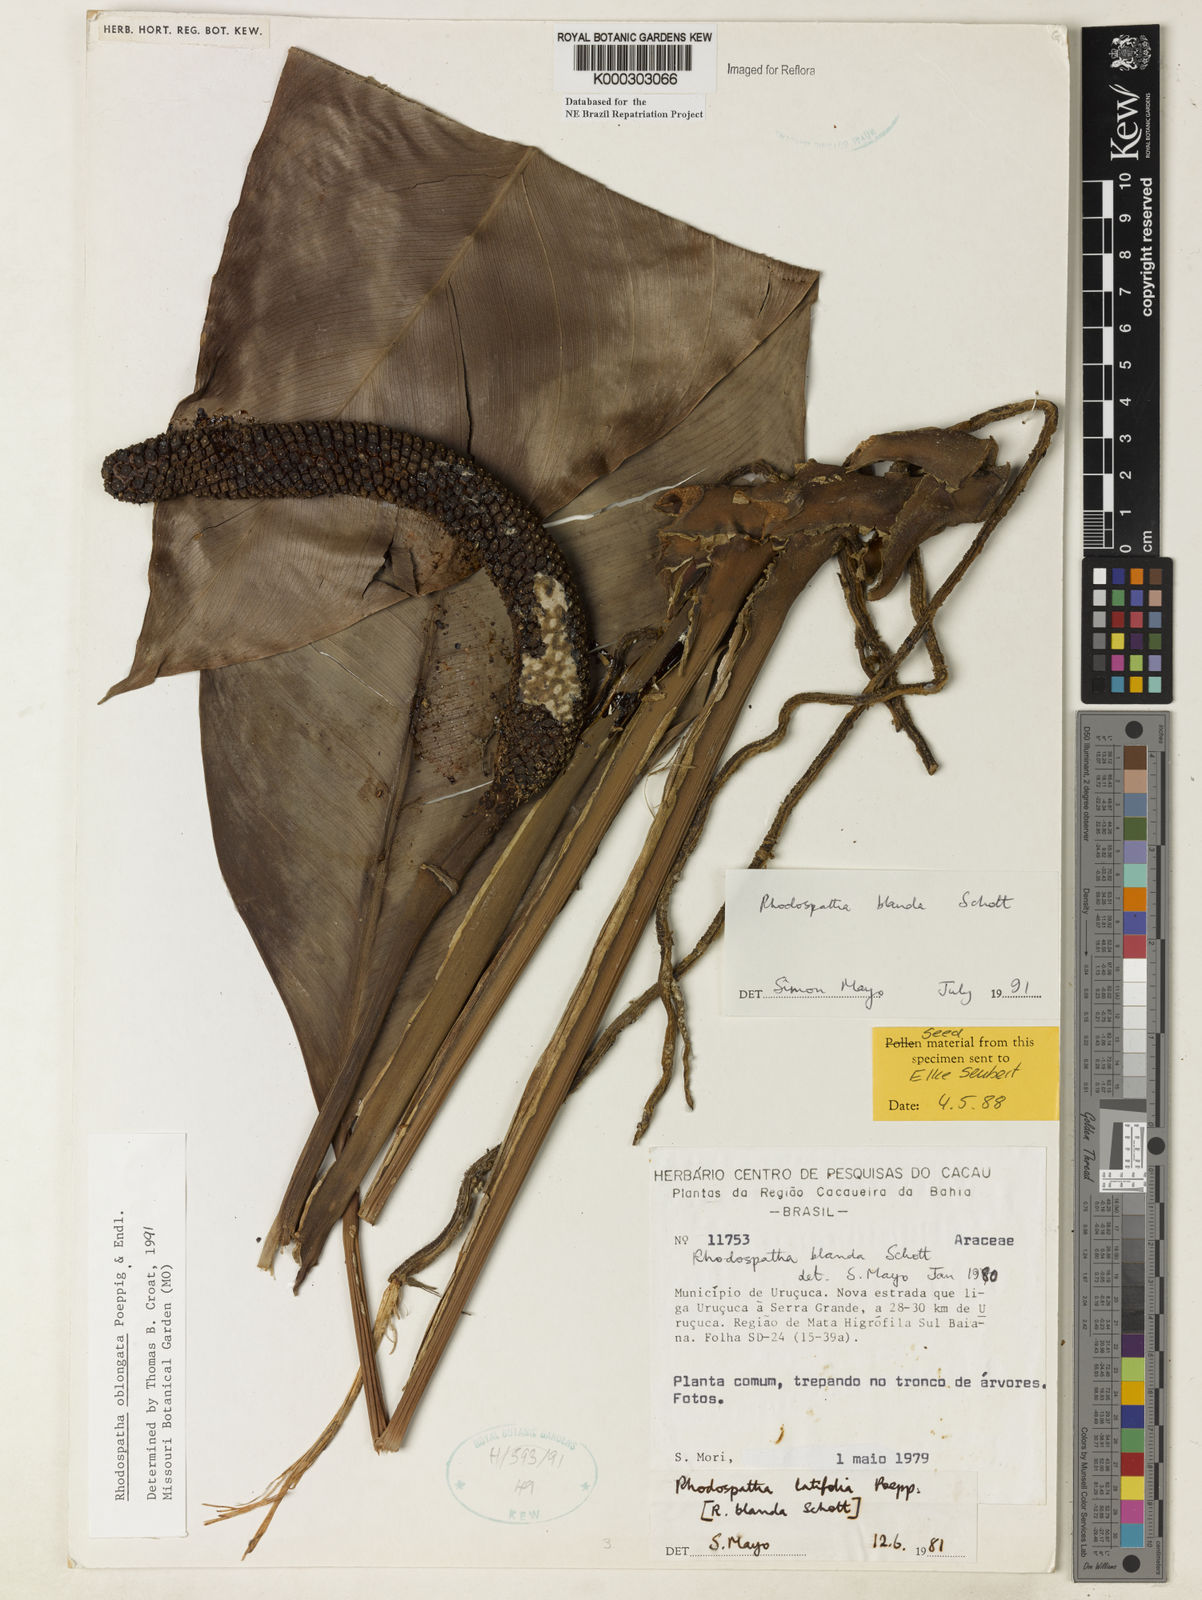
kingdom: Plantae
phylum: Tracheophyta
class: Liliopsida
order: Alismatales
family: Araceae
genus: Rhodospatha
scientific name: Rhodospatha oblongata
